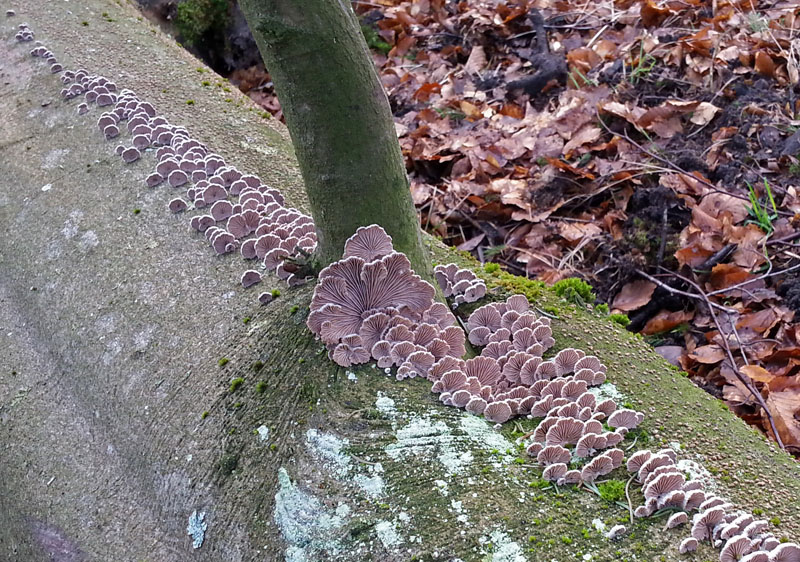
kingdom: Fungi
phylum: Basidiomycota
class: Agaricomycetes
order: Agaricales
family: Schizophyllaceae
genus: Schizophyllum
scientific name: Schizophyllum commune
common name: kløvblad
